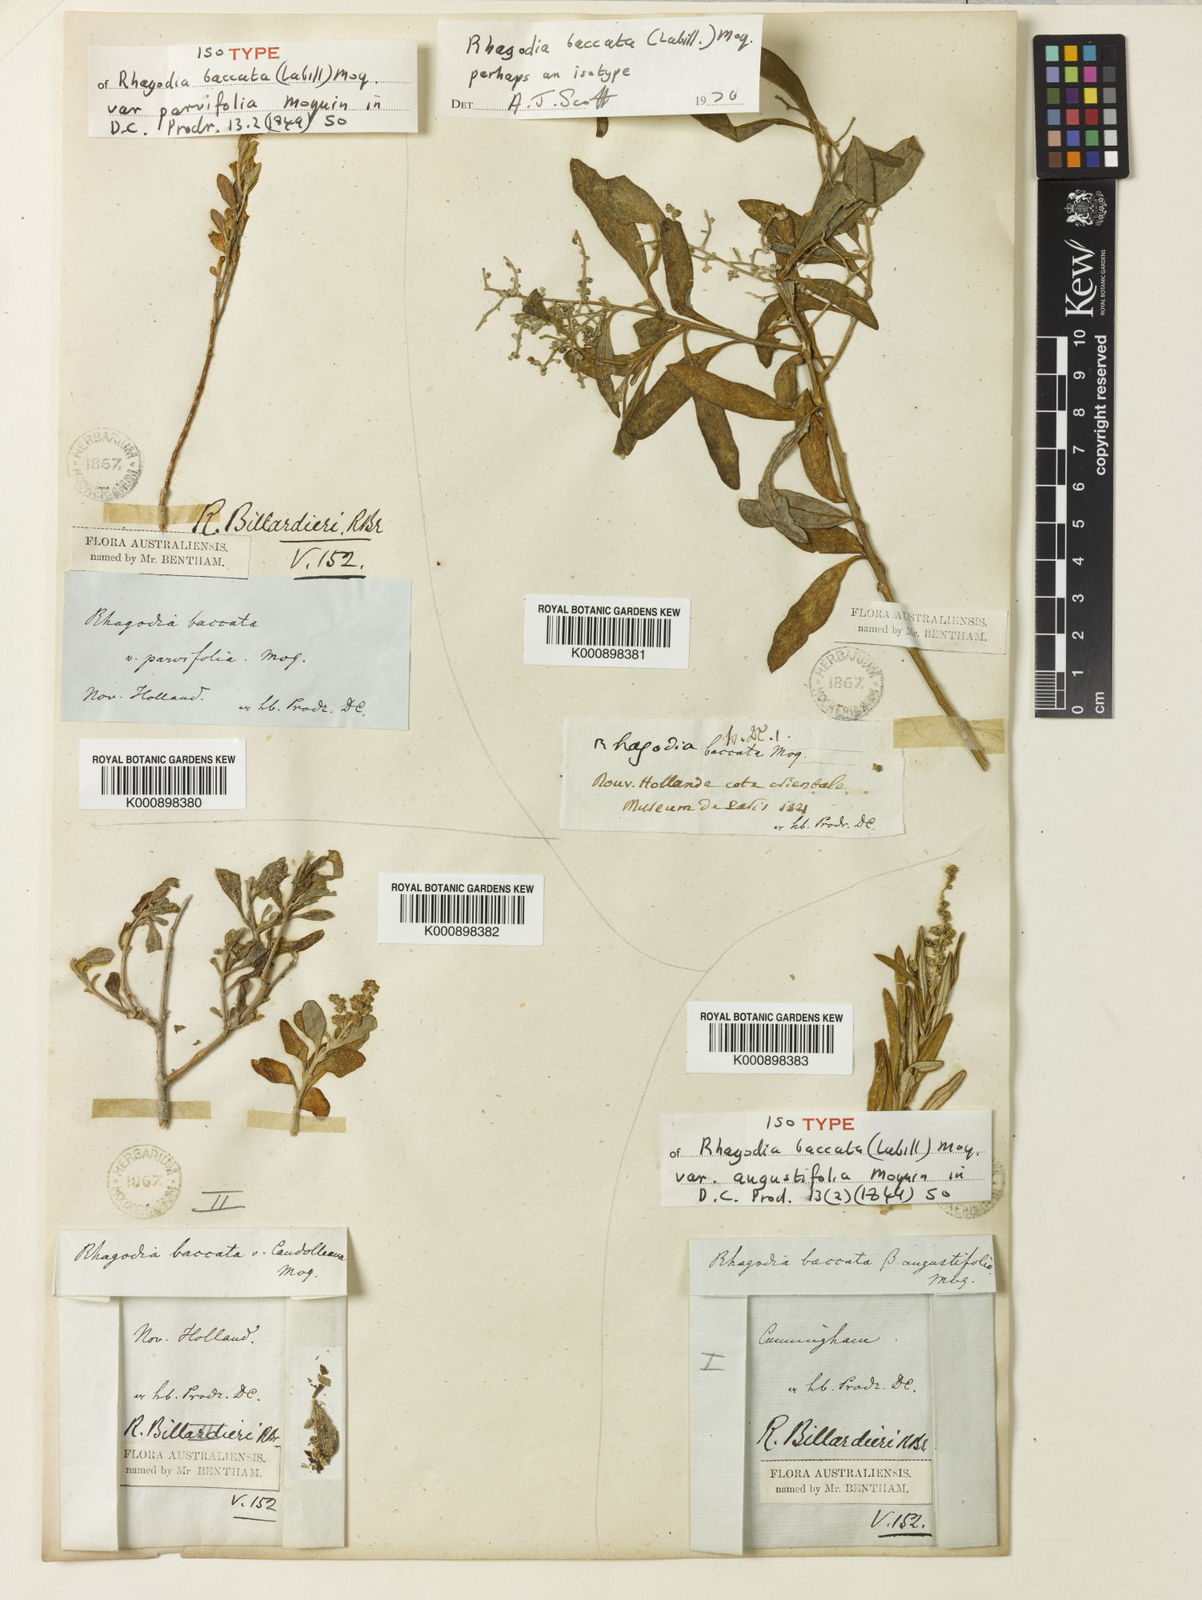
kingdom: Plantae
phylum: Tracheophyta
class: Magnoliopsida
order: Caryophyllales
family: Amaranthaceae
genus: Chenopodium
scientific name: Chenopodium baccatum
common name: Coastal-saltbush
